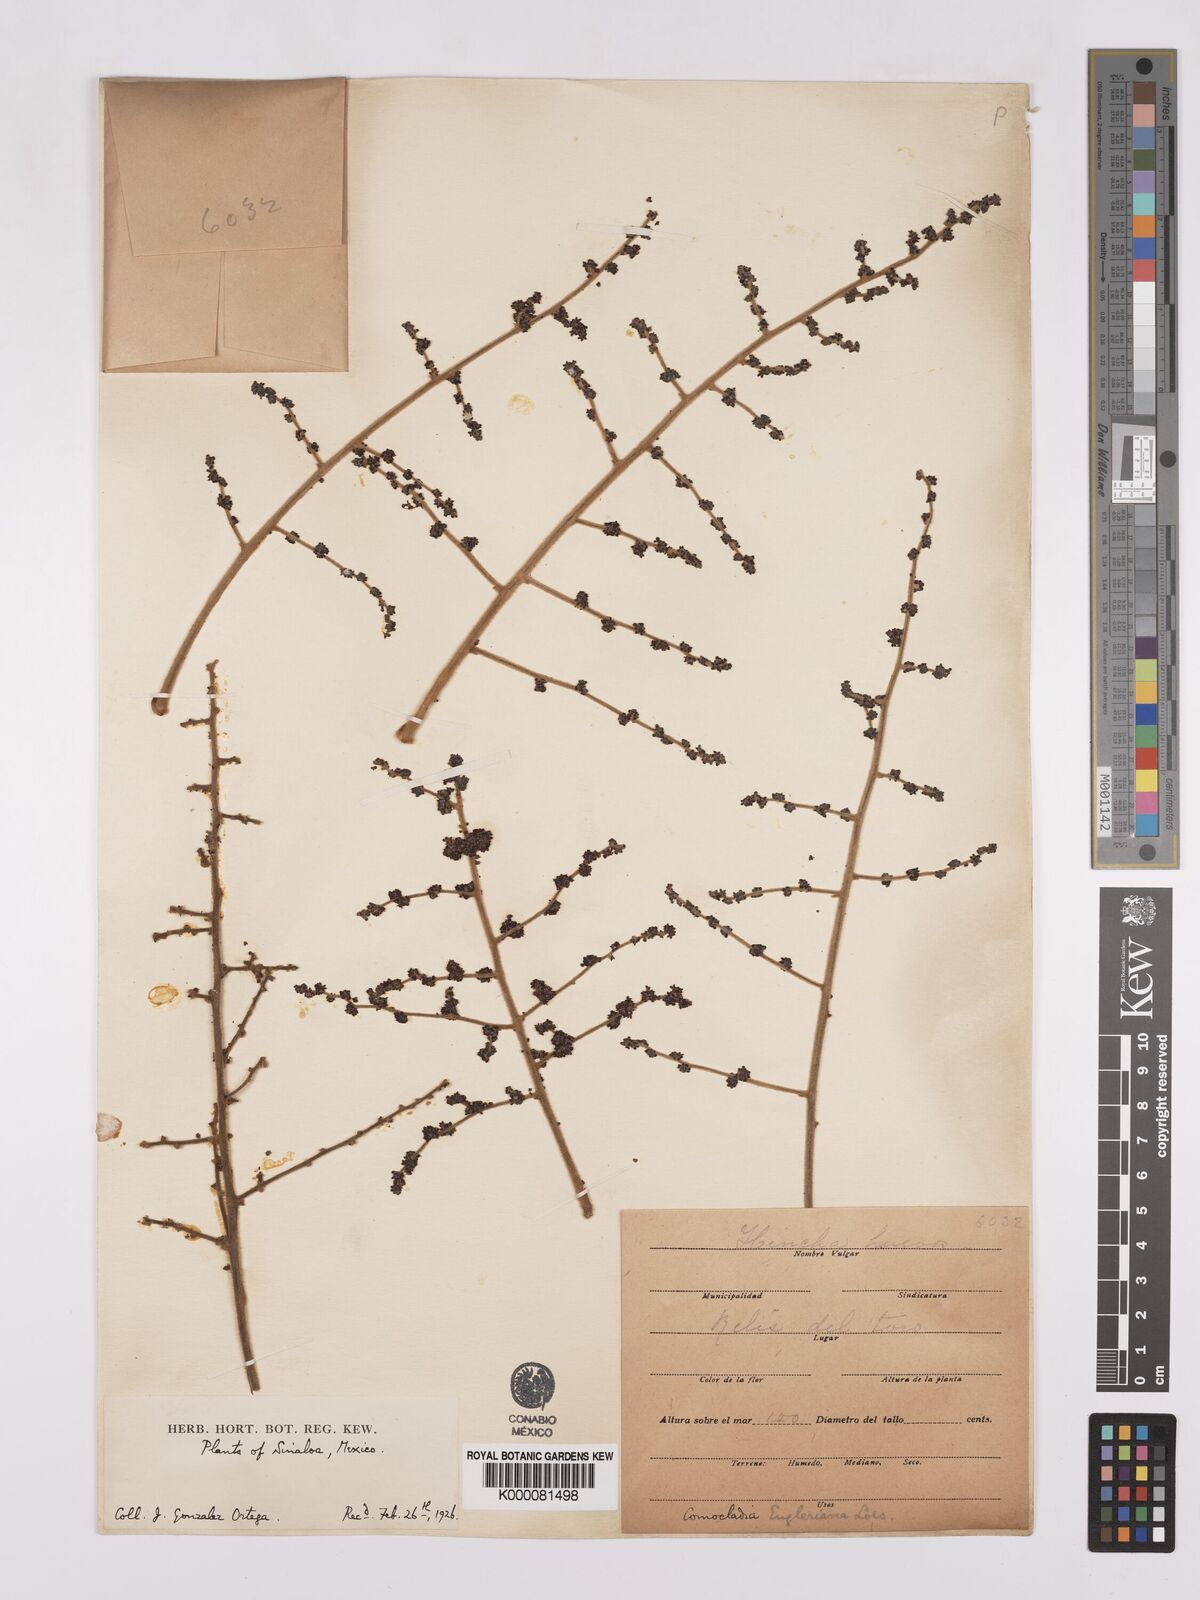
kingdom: Plantae
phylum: Tracheophyta
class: Magnoliopsida
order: Sapindales
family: Anacardiaceae
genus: Comocladia
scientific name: Comocladia
